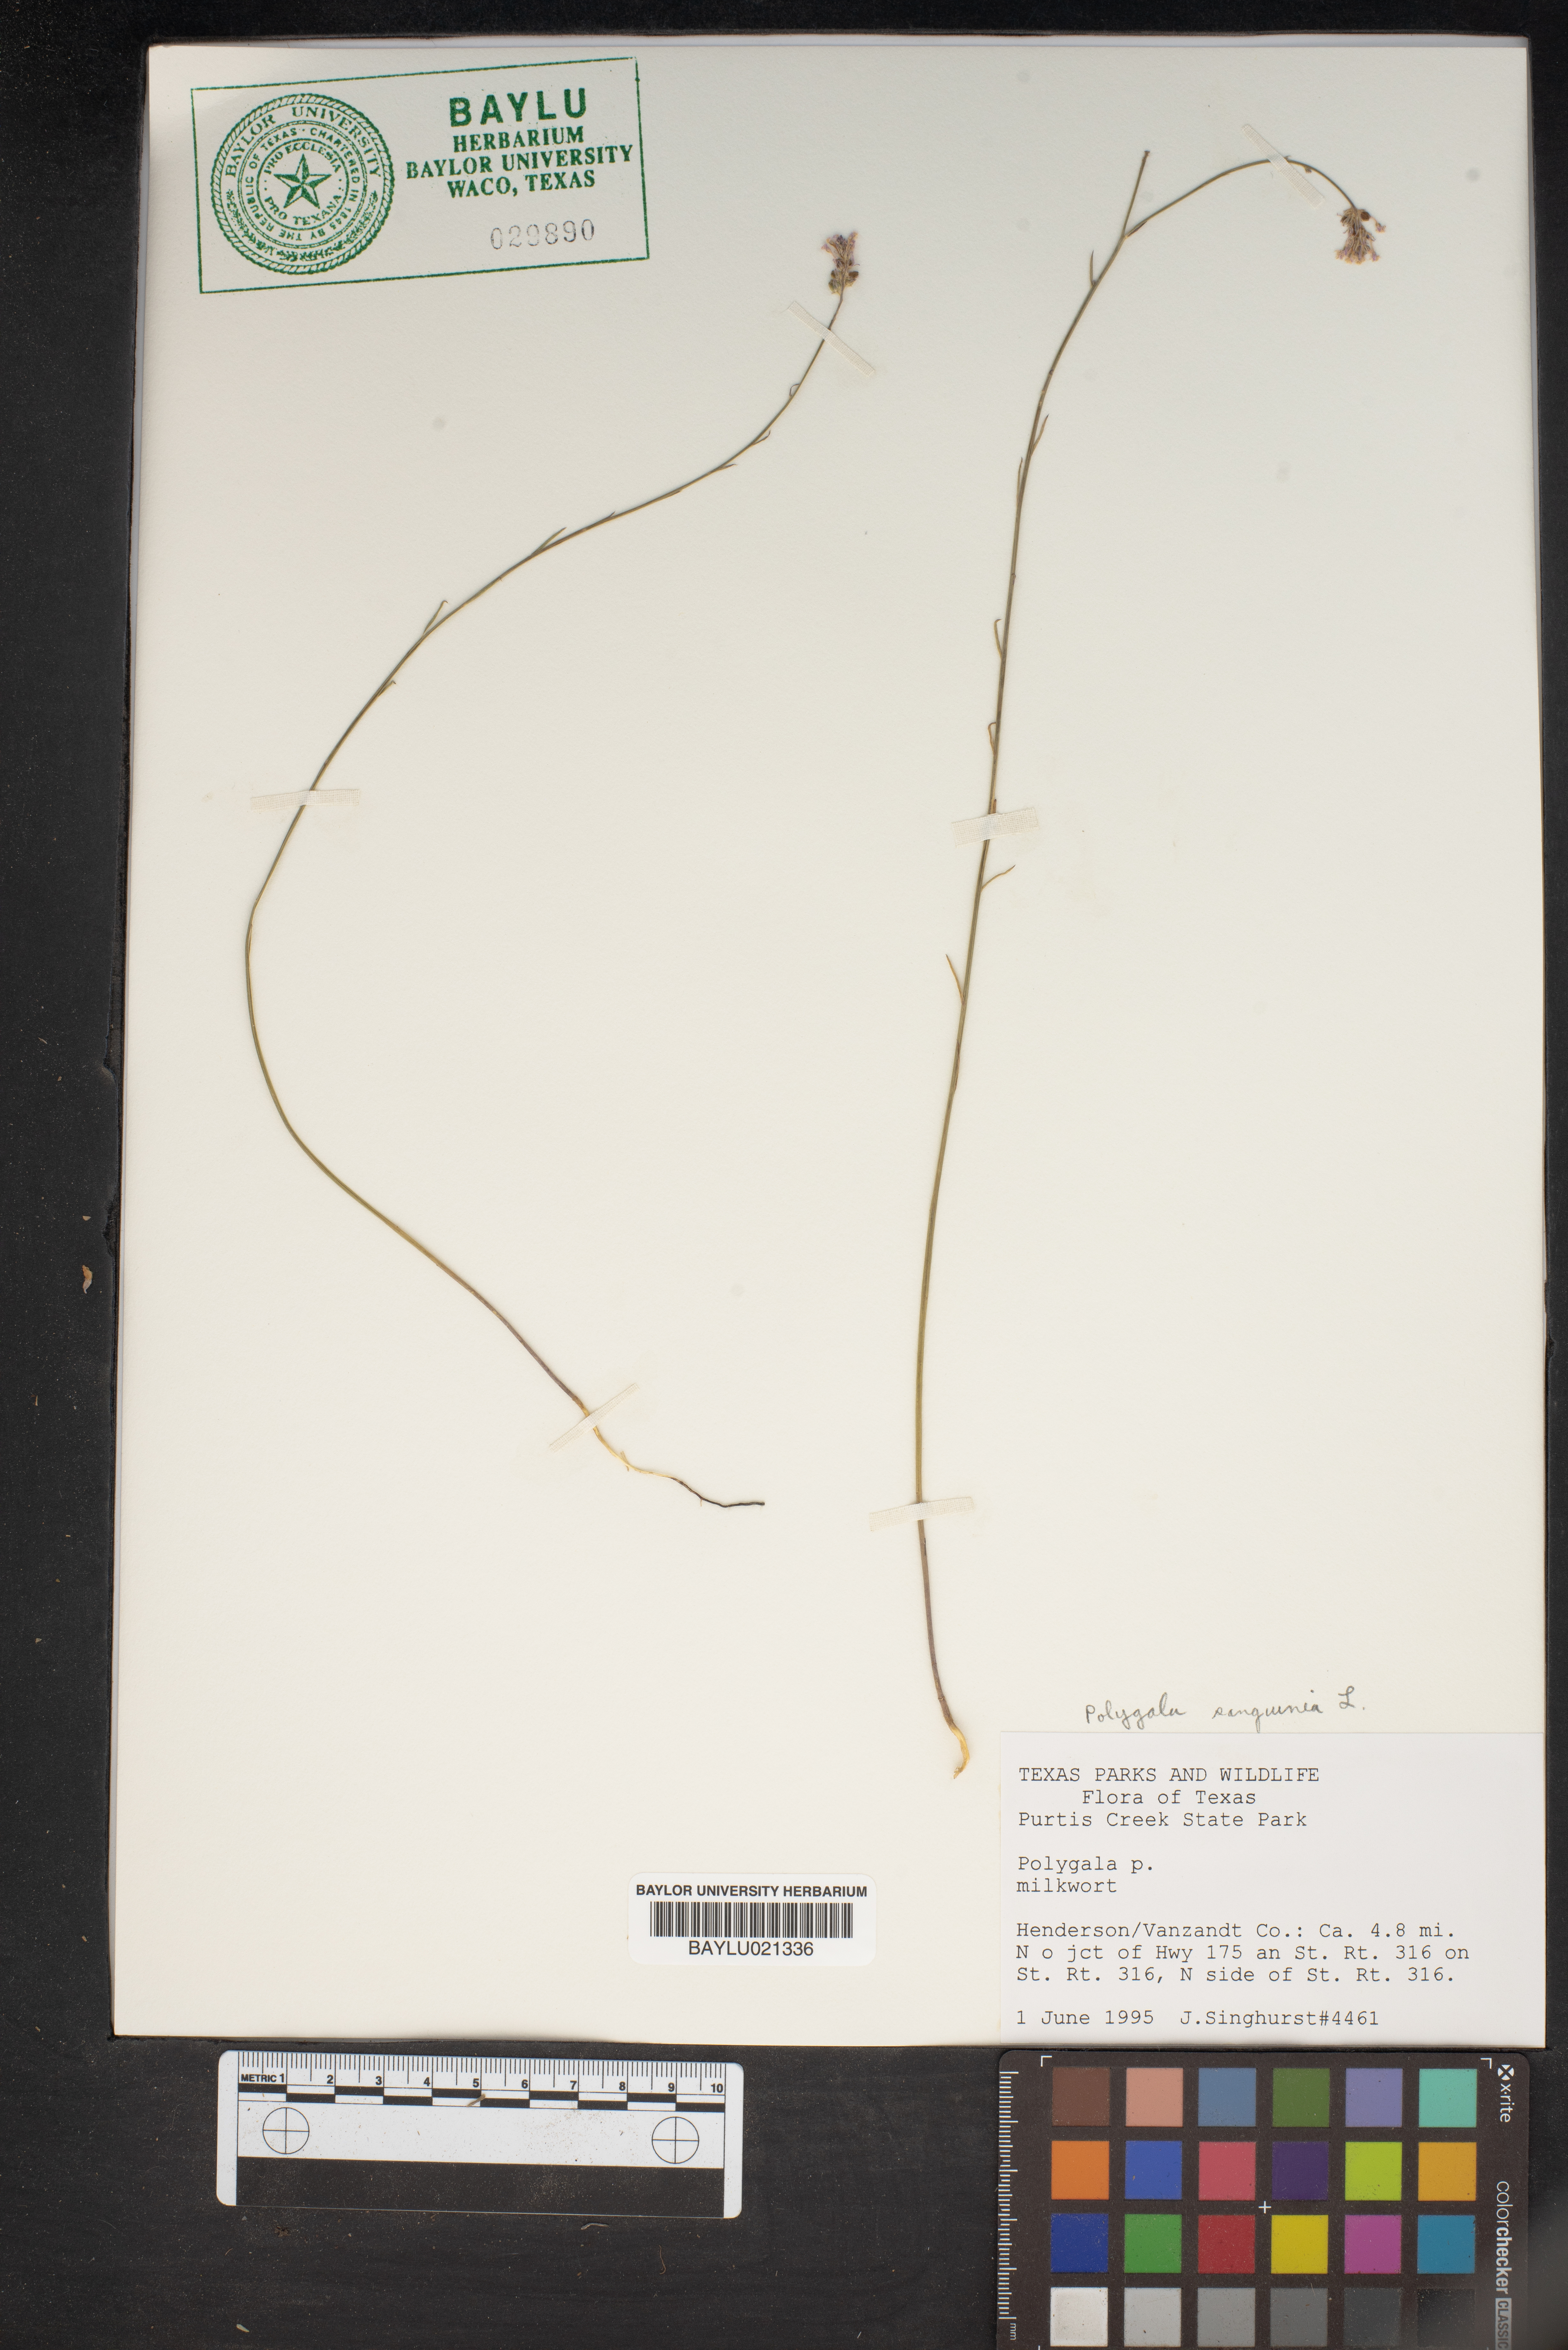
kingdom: Plantae
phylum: Tracheophyta
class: Magnoliopsida
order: Fabales
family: Polygalaceae
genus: Polygala
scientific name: Polygala
